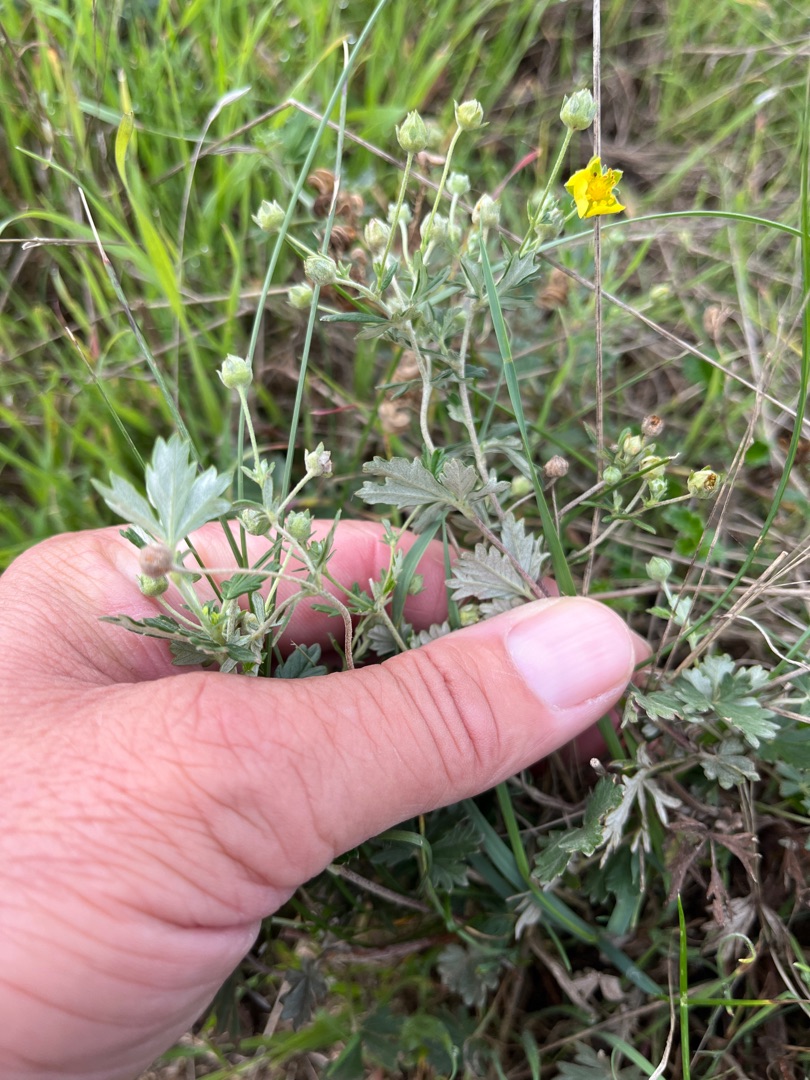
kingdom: Plantae
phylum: Tracheophyta
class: Magnoliopsida
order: Rosales
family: Rosaceae
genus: Potentilla
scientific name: Potentilla argentea
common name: Sølv-potentil
